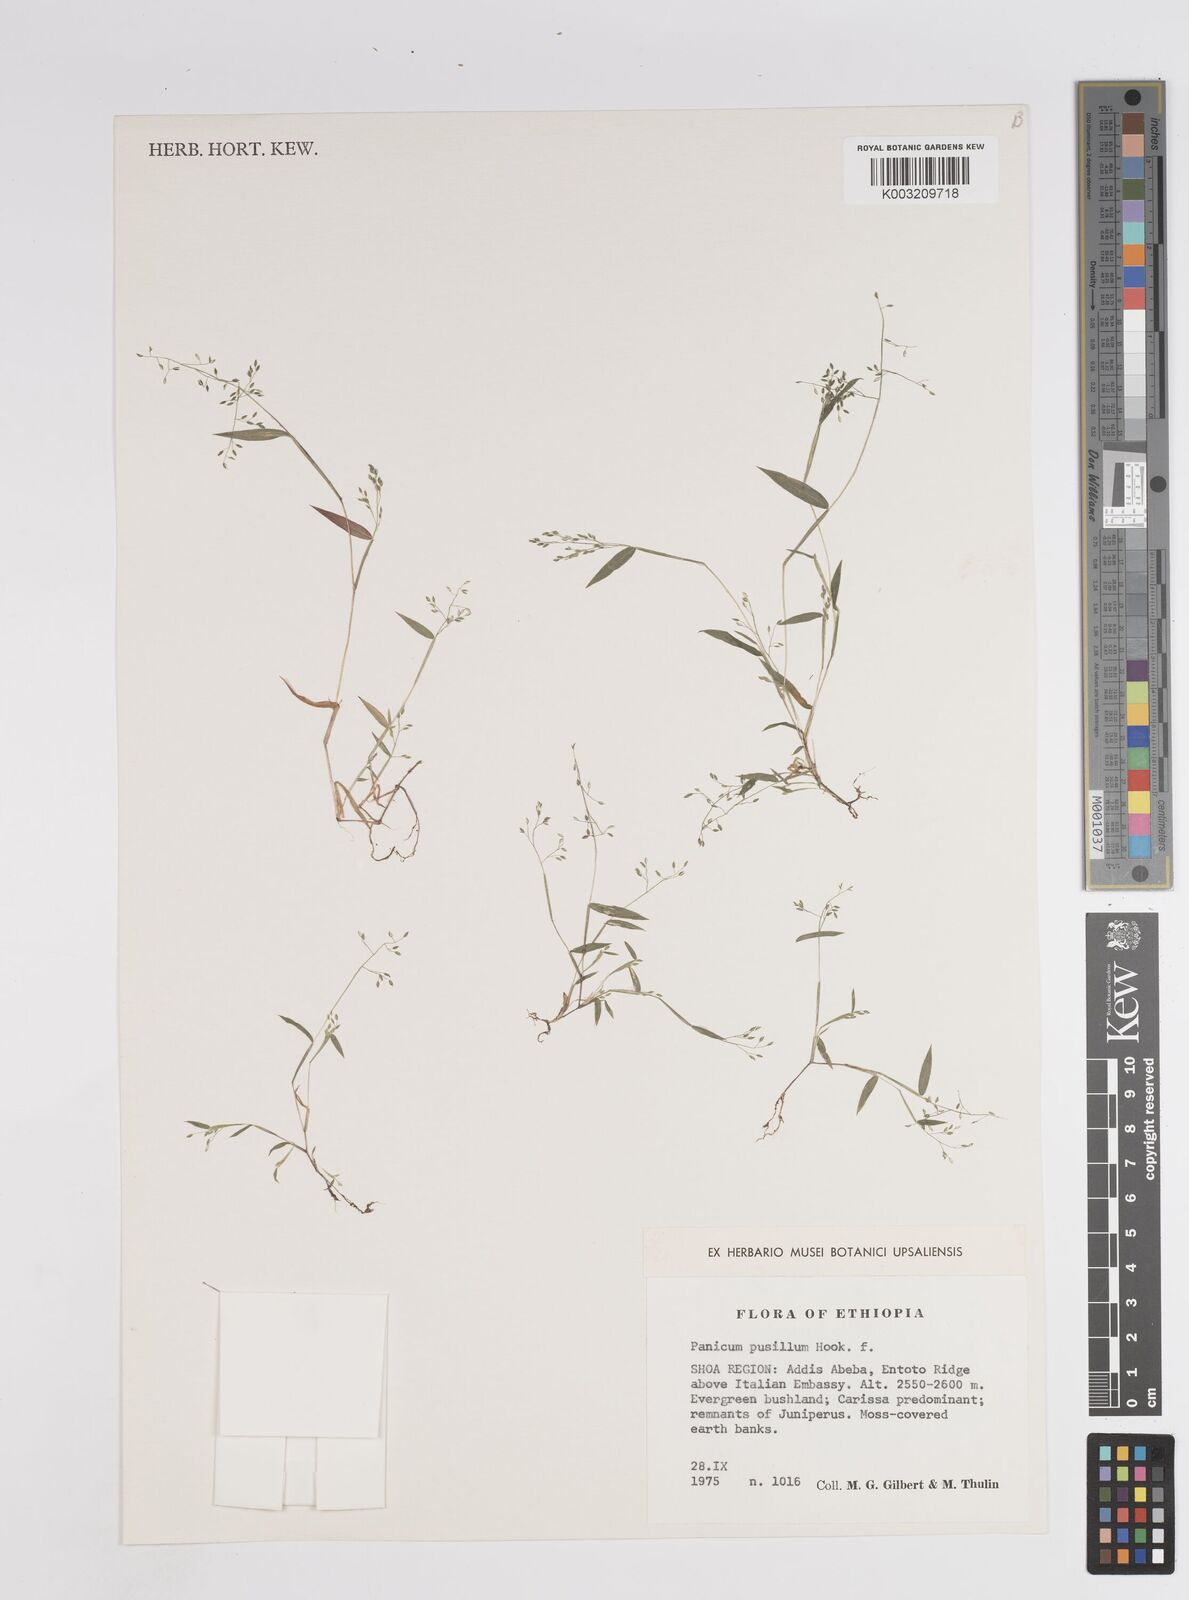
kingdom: Plantae
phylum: Tracheophyta
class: Liliopsida
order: Poales
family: Poaceae
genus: Panicum
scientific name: Panicum pusillum
